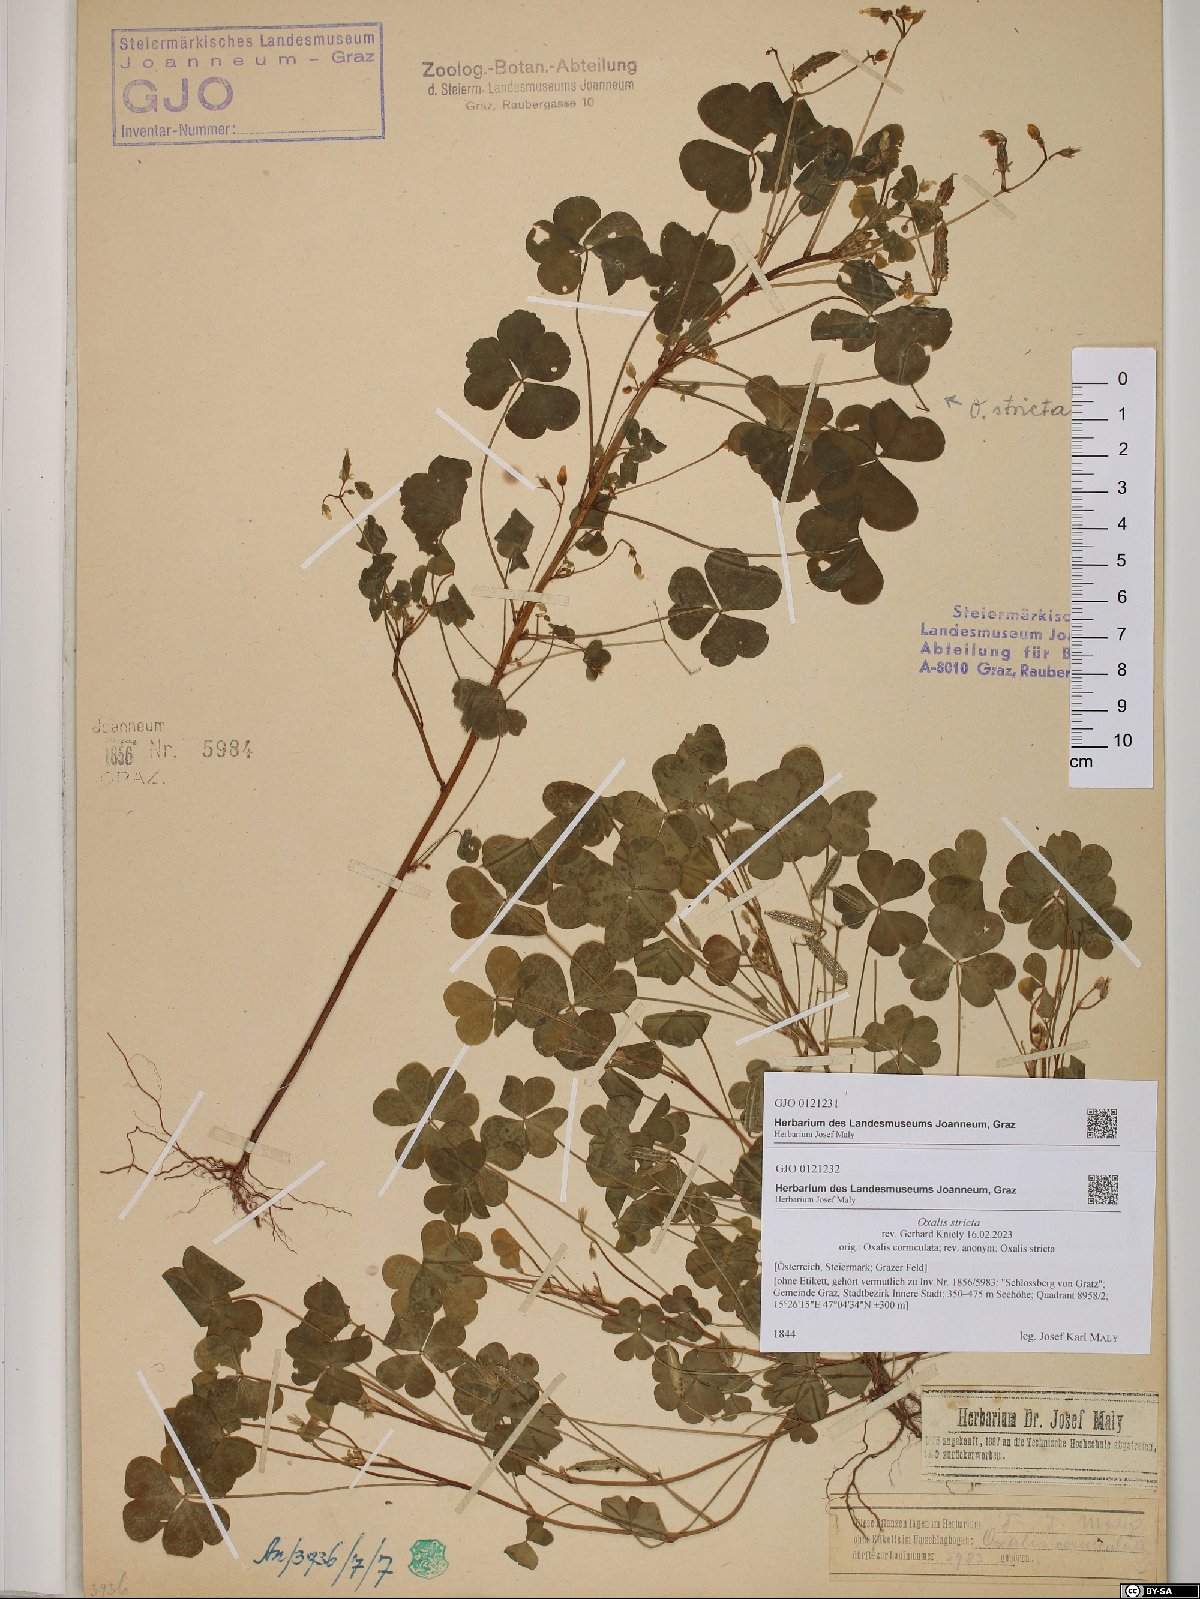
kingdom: Plantae
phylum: Tracheophyta
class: Magnoliopsida
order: Oxalidales
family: Oxalidaceae
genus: Oxalis
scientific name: Oxalis stricta
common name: Upright yellow-sorrel
